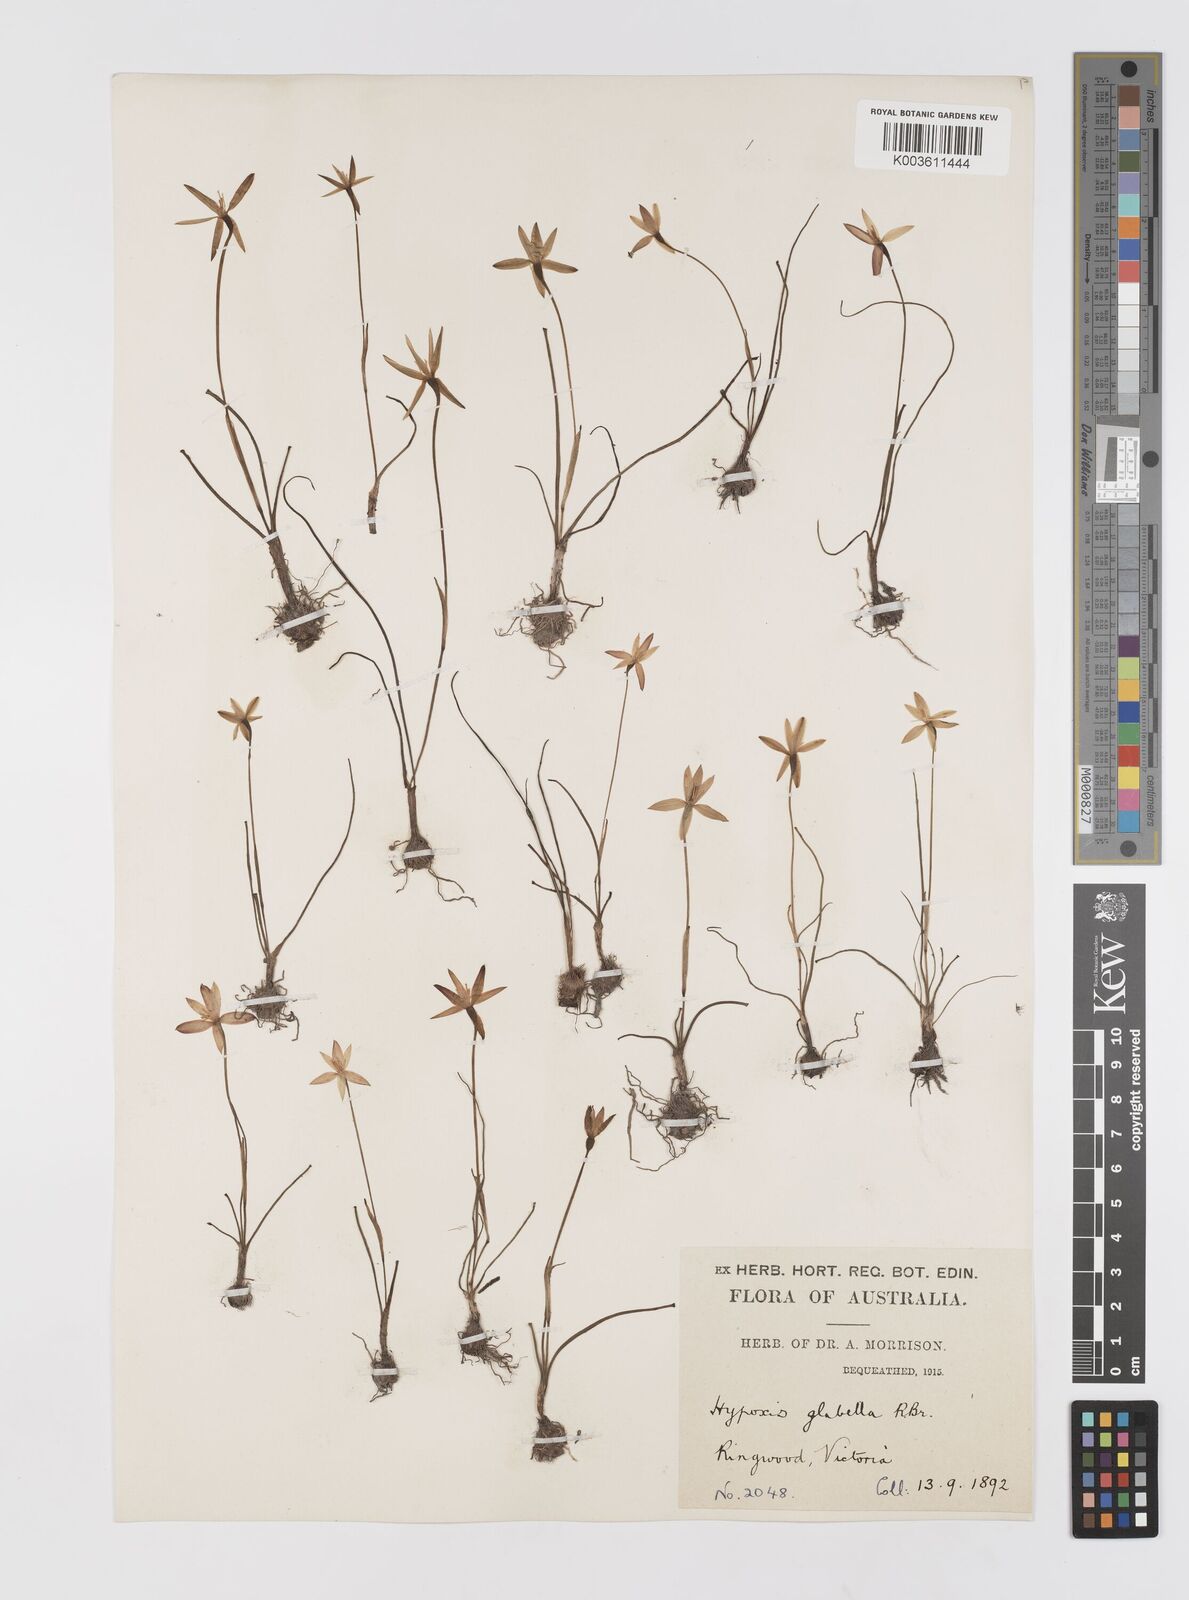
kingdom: Plantae
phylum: Tracheophyta
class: Liliopsida
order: Asparagales
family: Hypoxidaceae
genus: Pauridia
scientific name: Pauridia glabella
